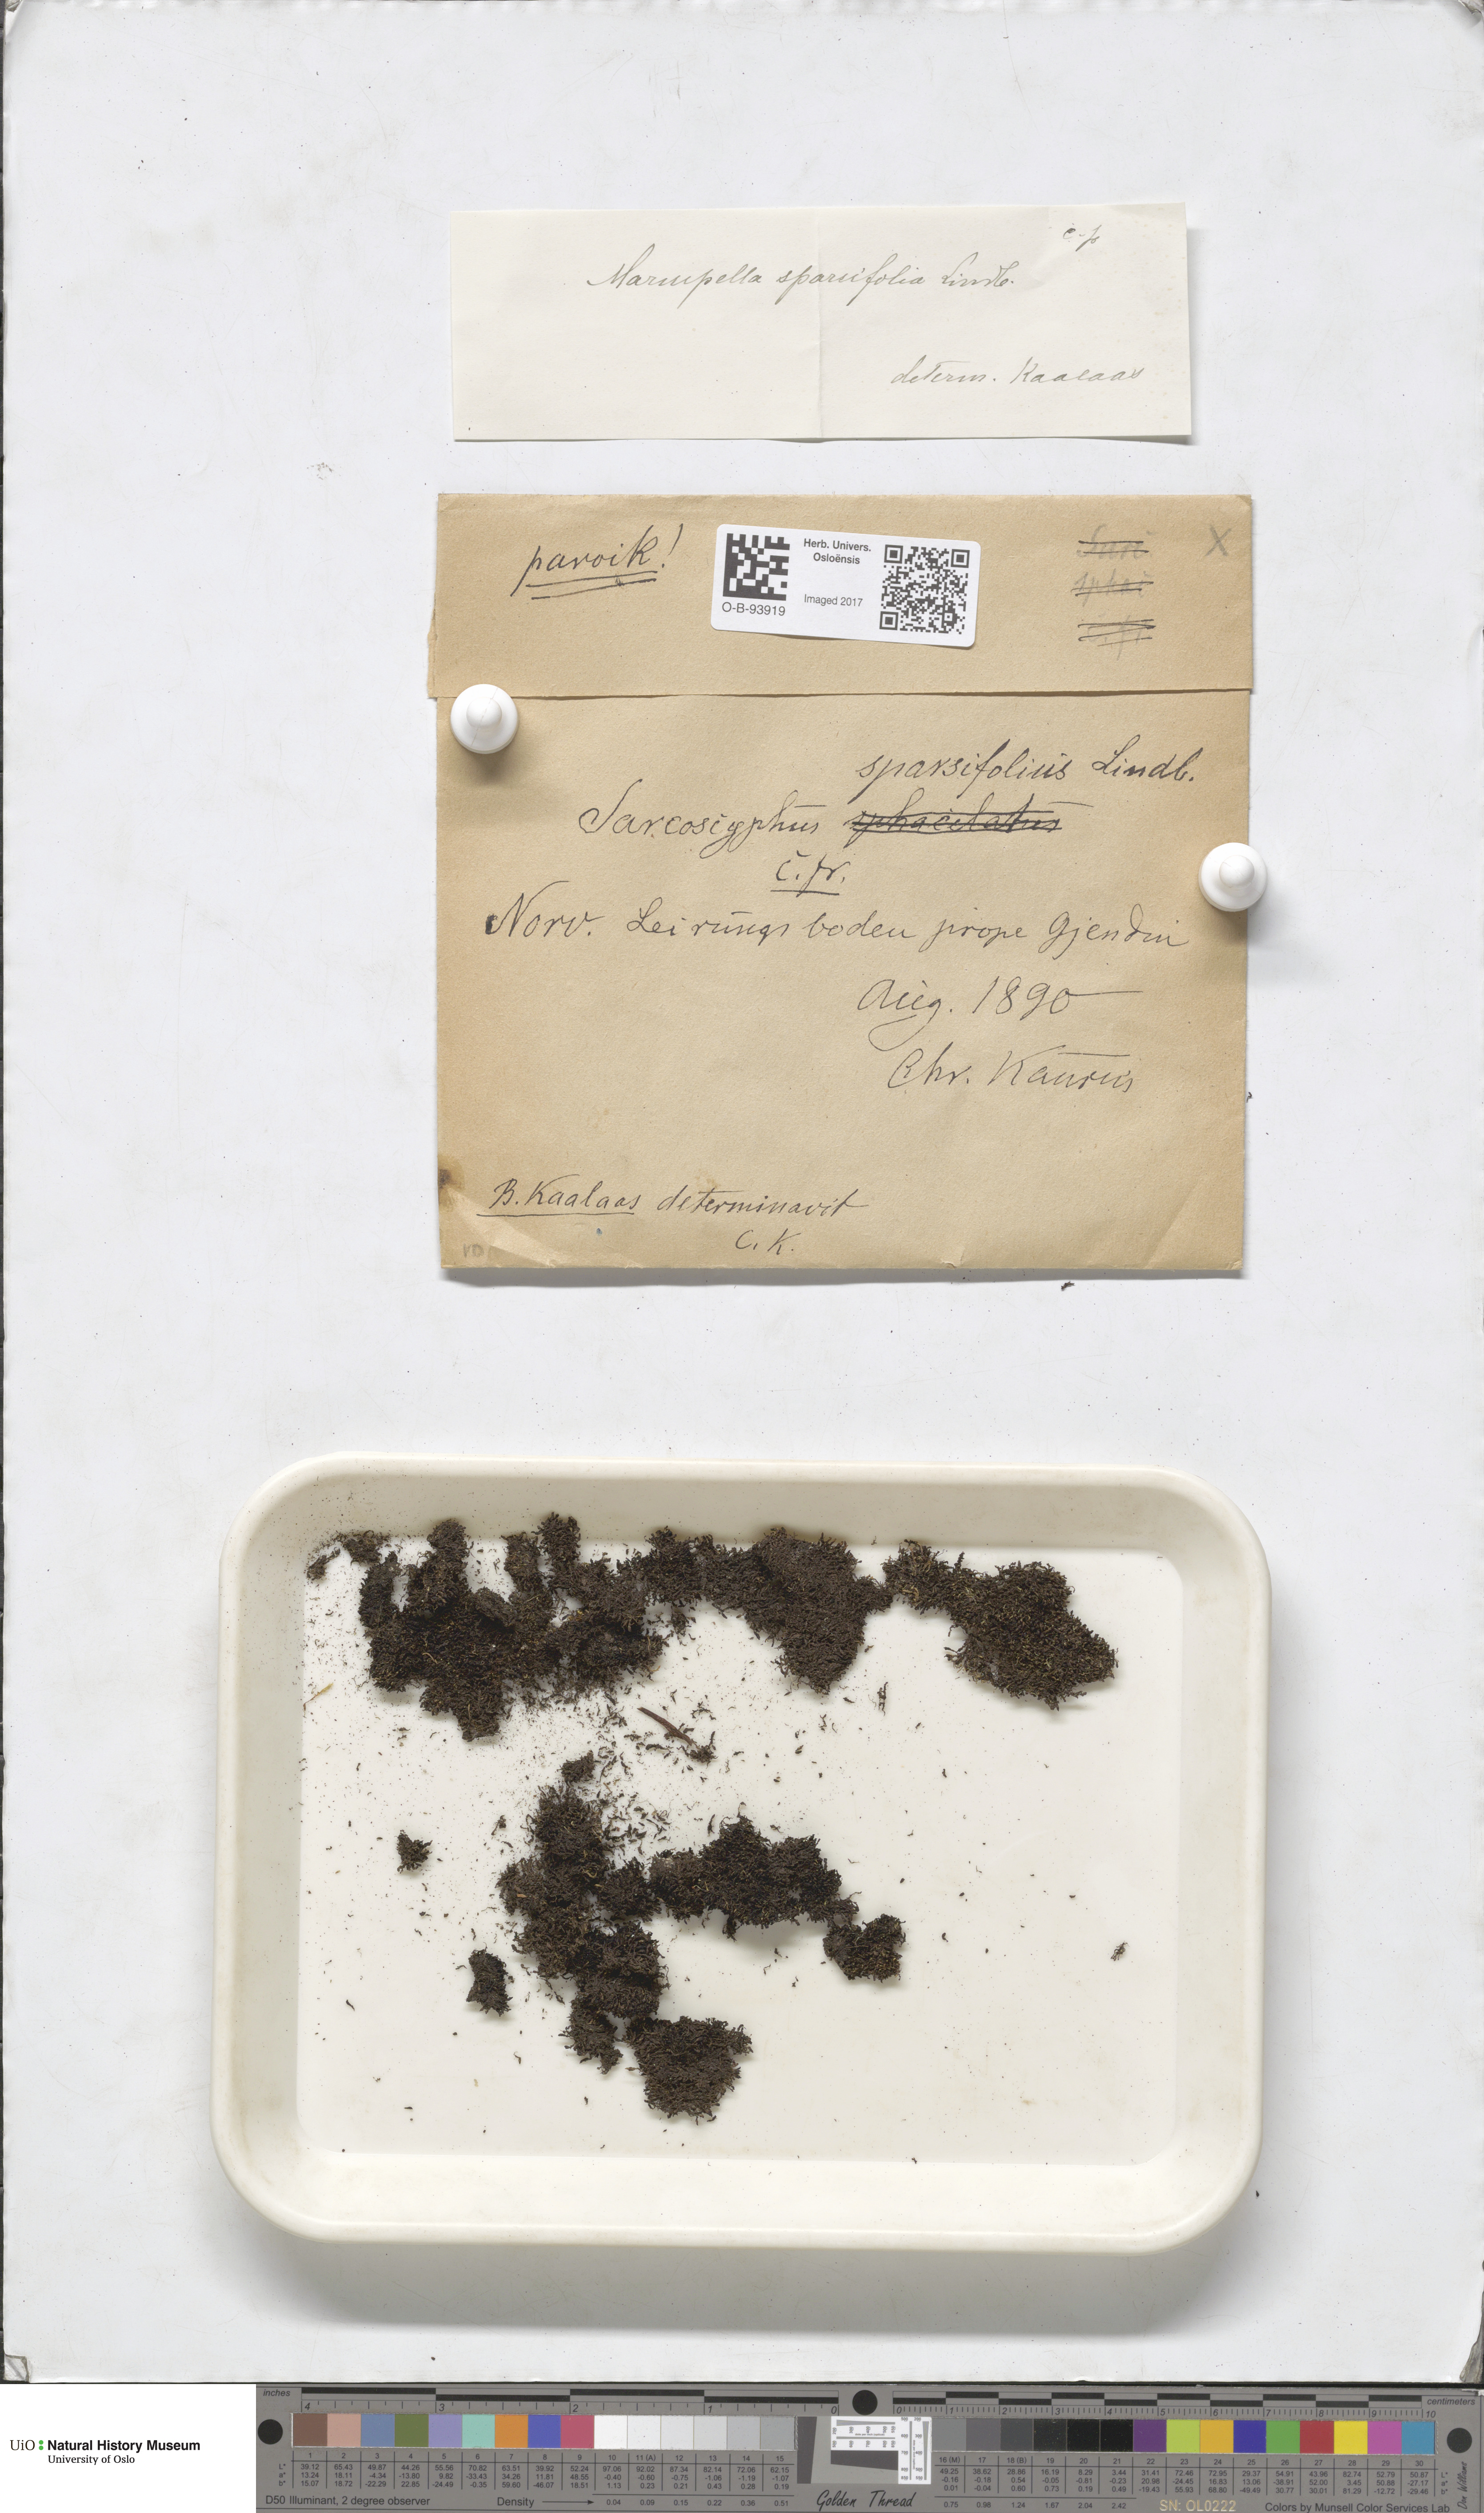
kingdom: Plantae
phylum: Marchantiophyta
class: Jungermanniopsida
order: Jungermanniales
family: Gymnomitriaceae
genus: Marsupella
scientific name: Marsupella sparsifolia
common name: Rounded rustwort
